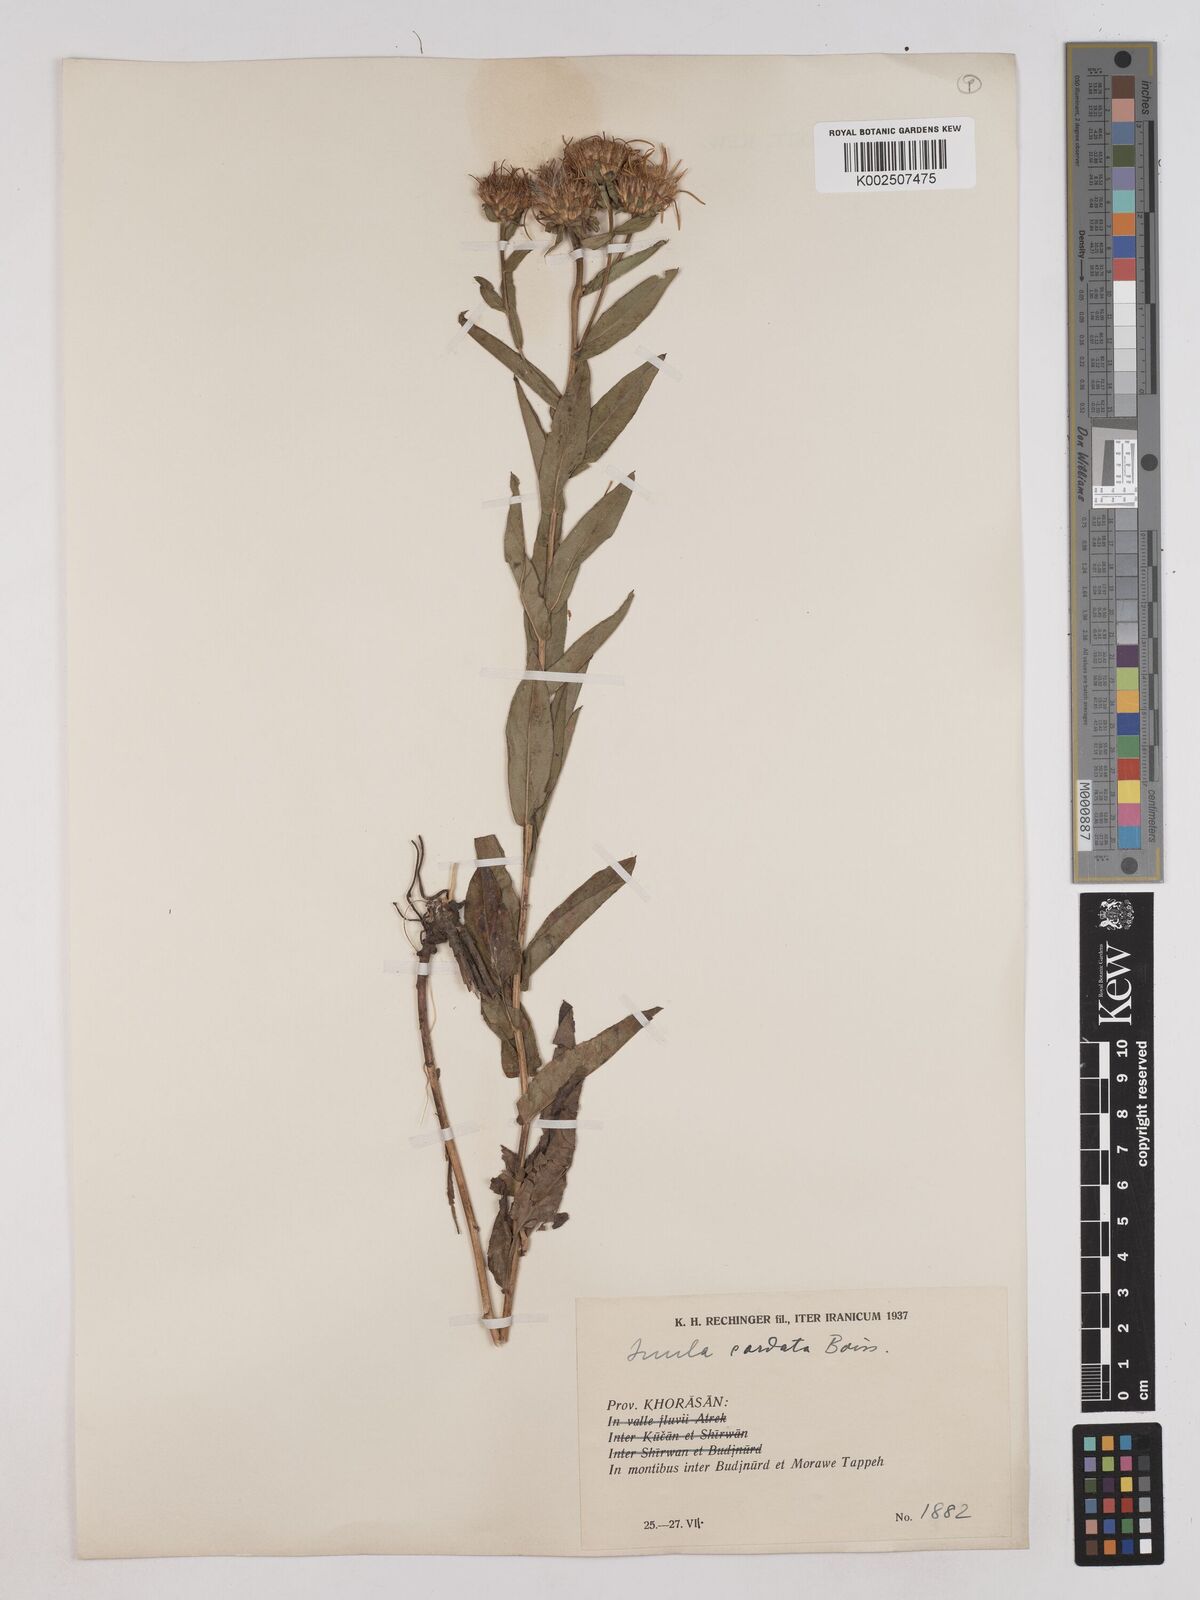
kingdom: Plantae
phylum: Tracheophyta
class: Magnoliopsida
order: Asterales
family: Asteraceae
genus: Pentanema
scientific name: Pentanema salicinum
